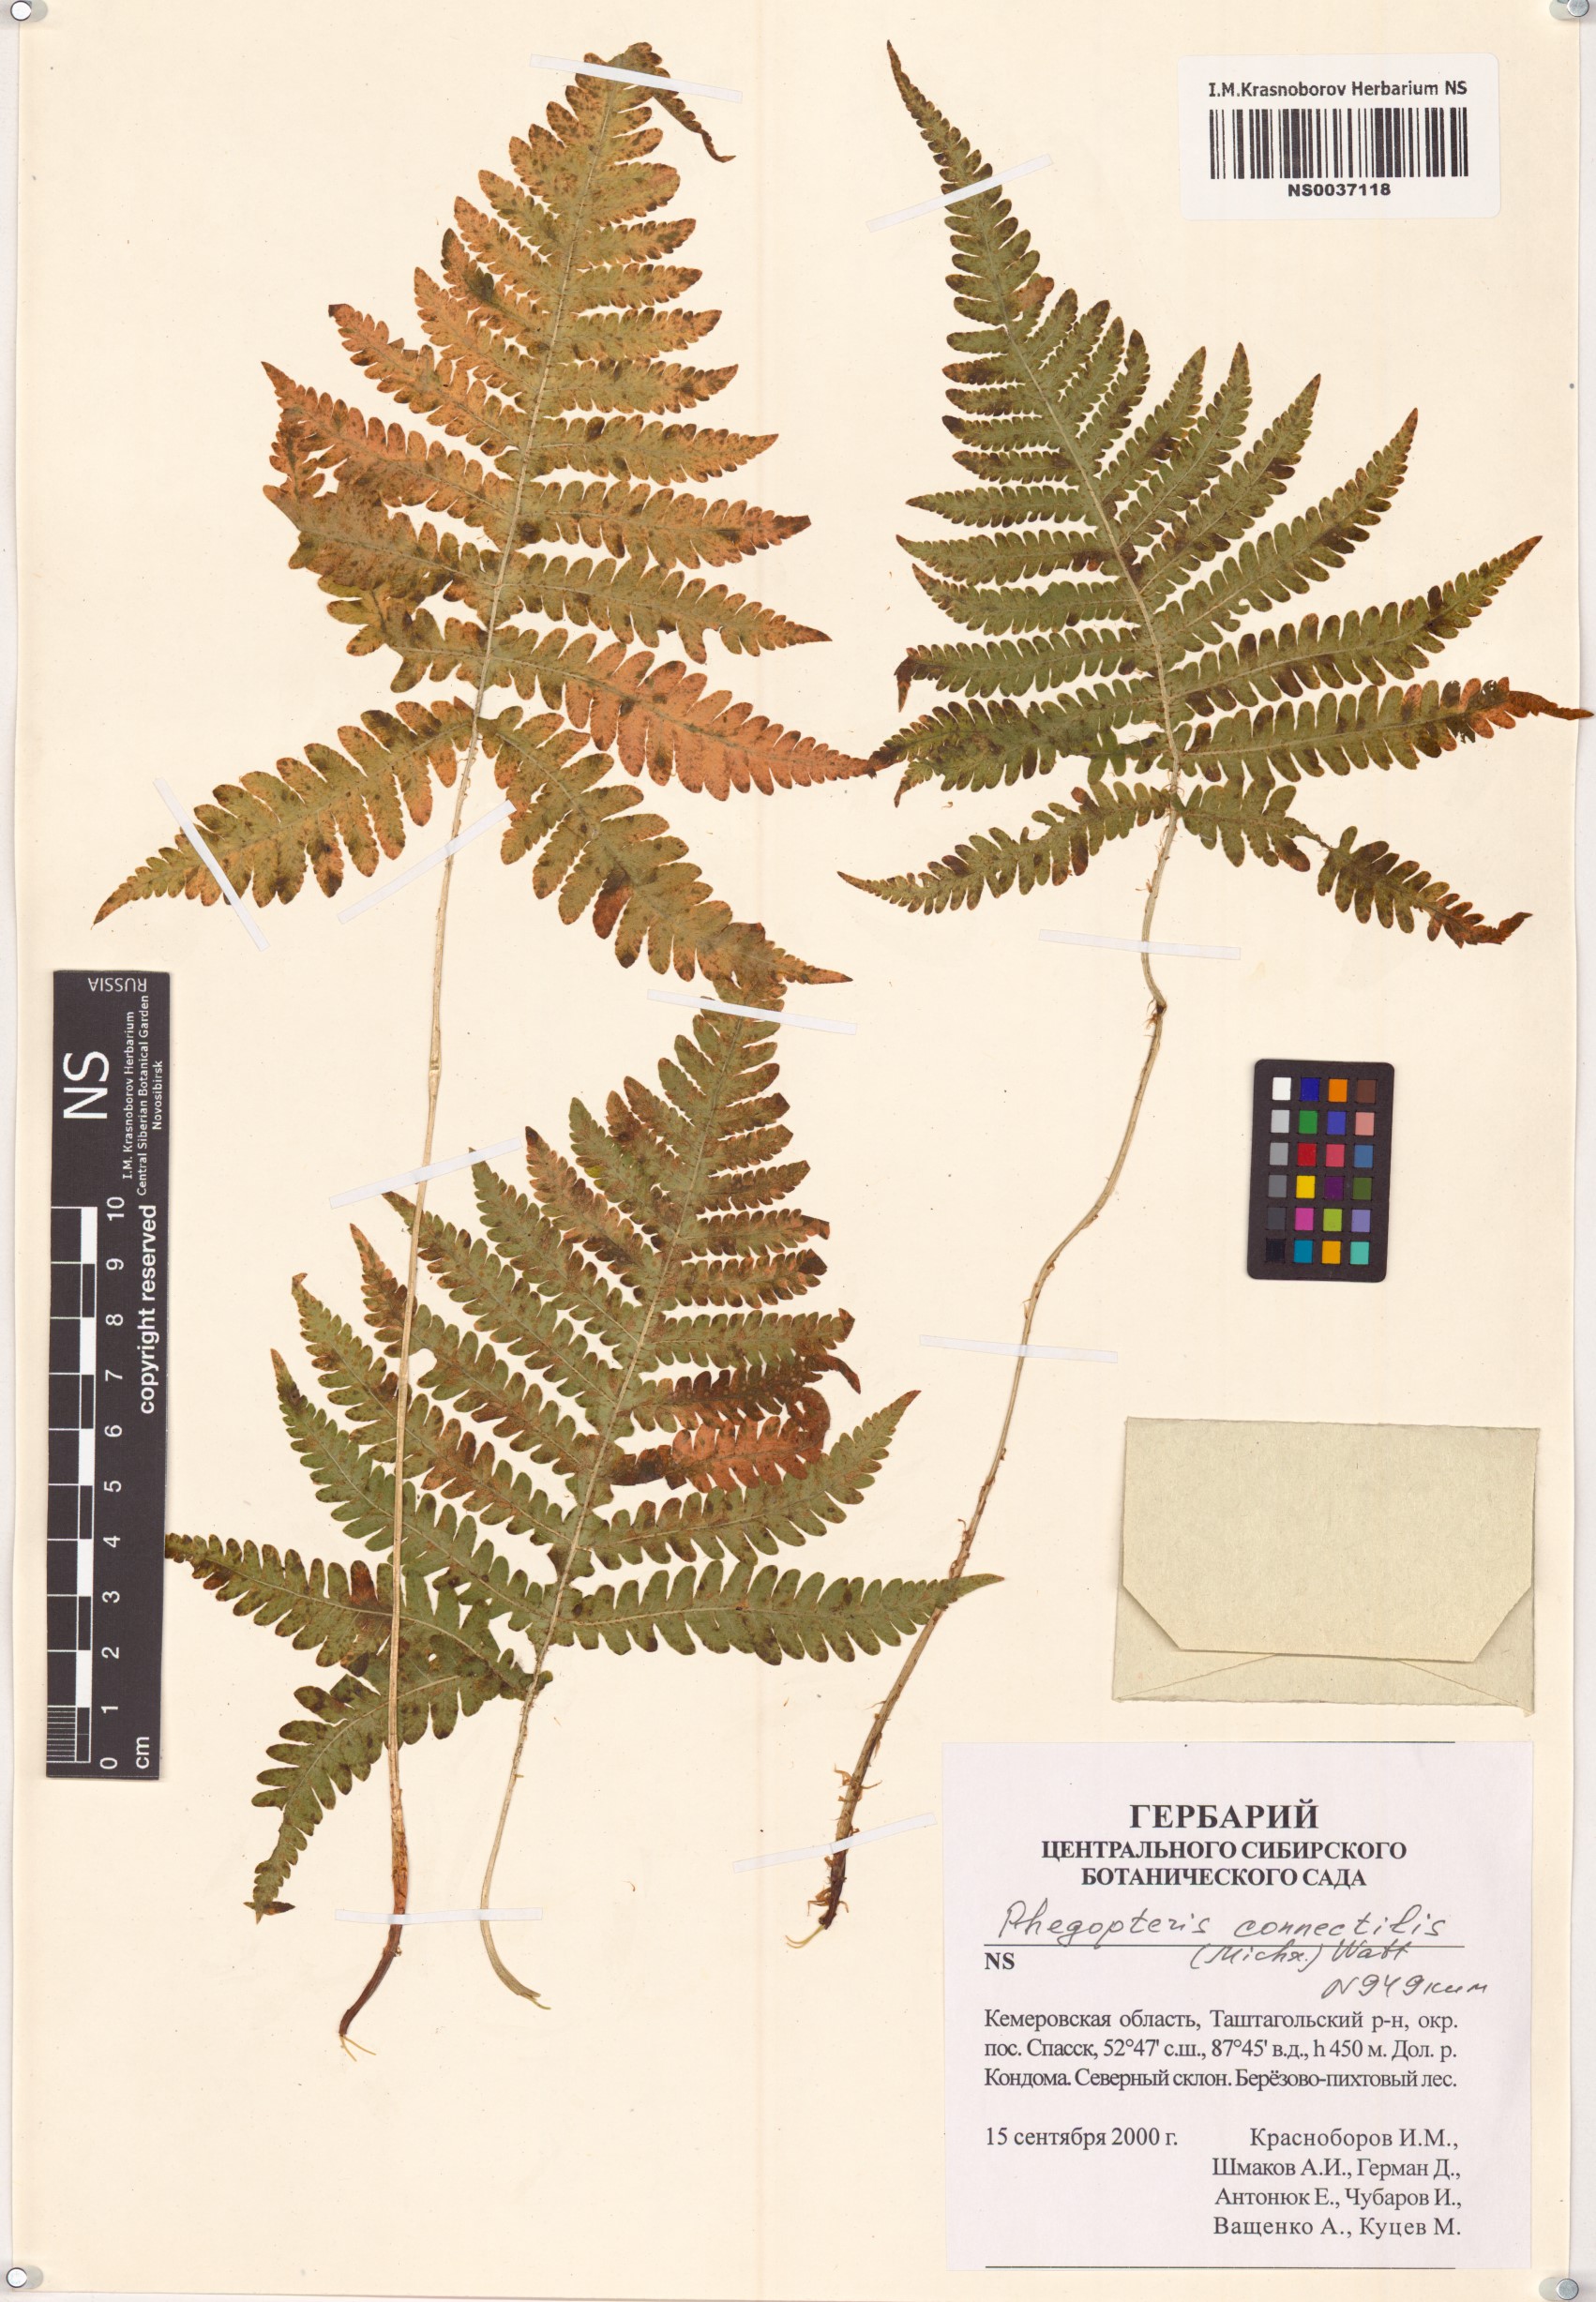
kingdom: Plantae
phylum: Tracheophyta
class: Polypodiopsida
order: Polypodiales
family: Thelypteridaceae
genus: Phegopteris
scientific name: Phegopteris connectilis
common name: Beech fern
